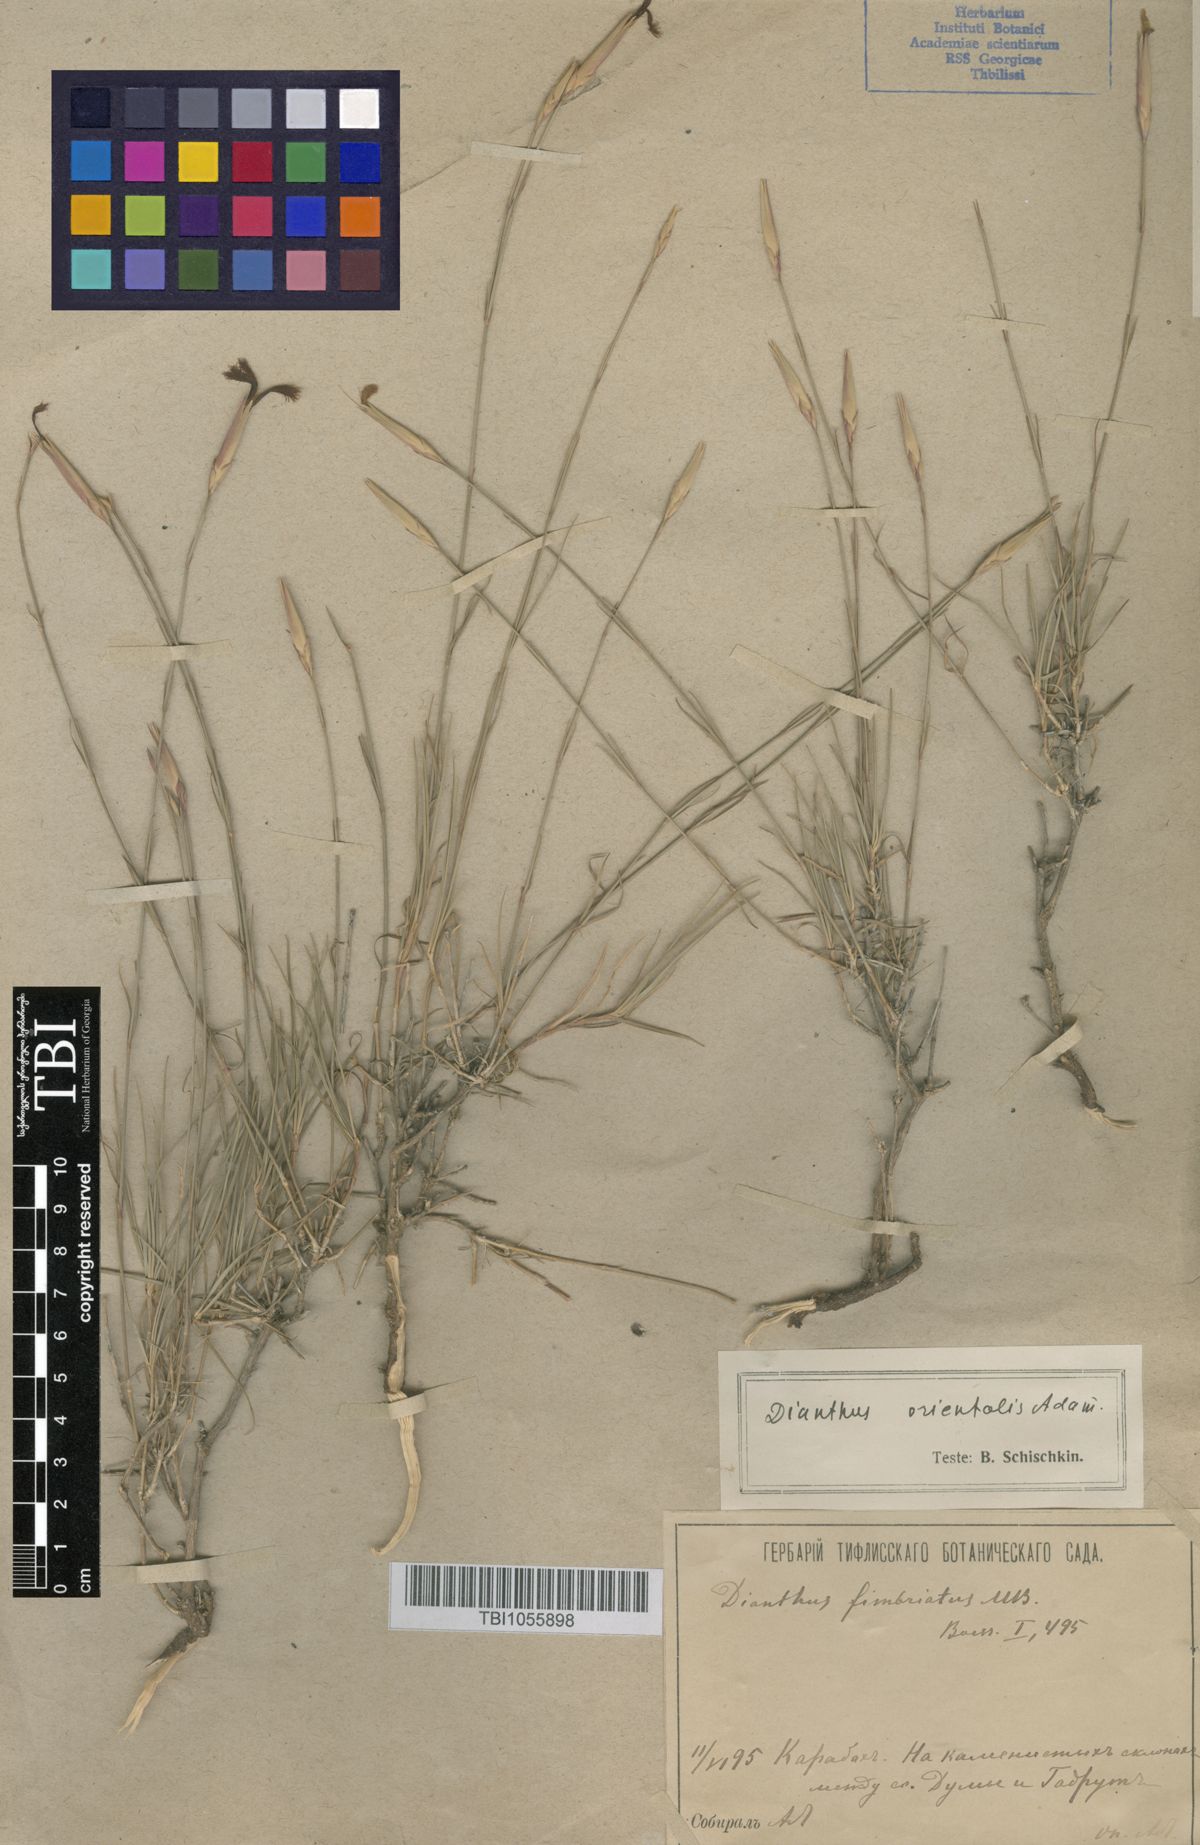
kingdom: Plantae
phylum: Tracheophyta
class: Magnoliopsida
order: Caryophyllales
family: Caryophyllaceae
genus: Dianthus
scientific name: Dianthus orientalis
